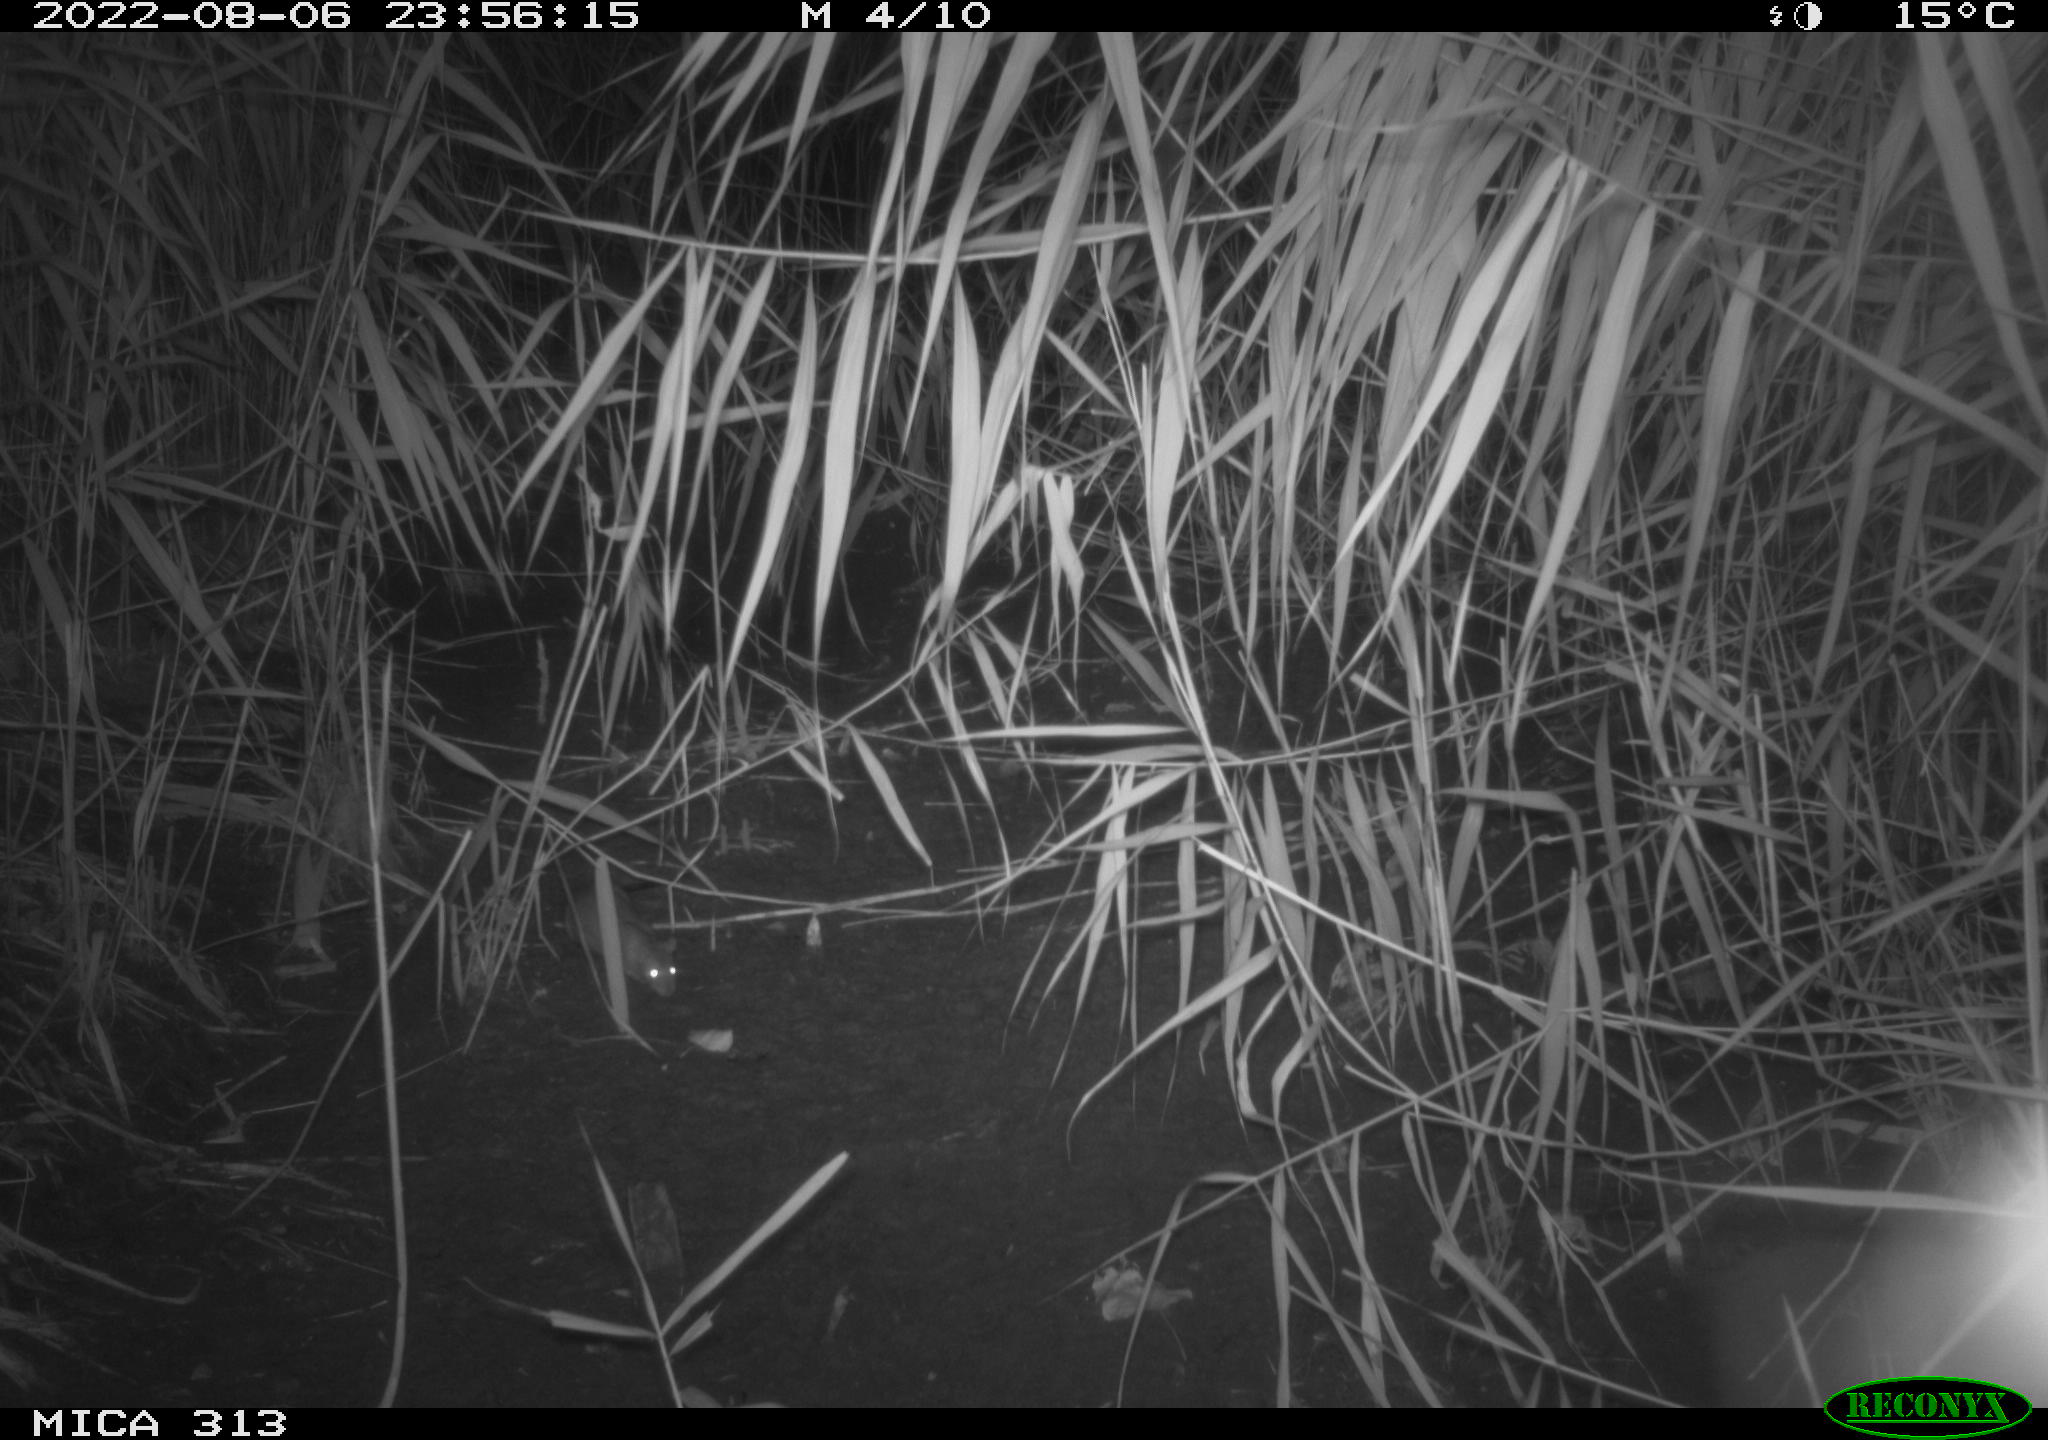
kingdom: Animalia
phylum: Chordata
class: Mammalia
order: Rodentia
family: Muridae
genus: Rattus
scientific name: Rattus norvegicus
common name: Brown rat
